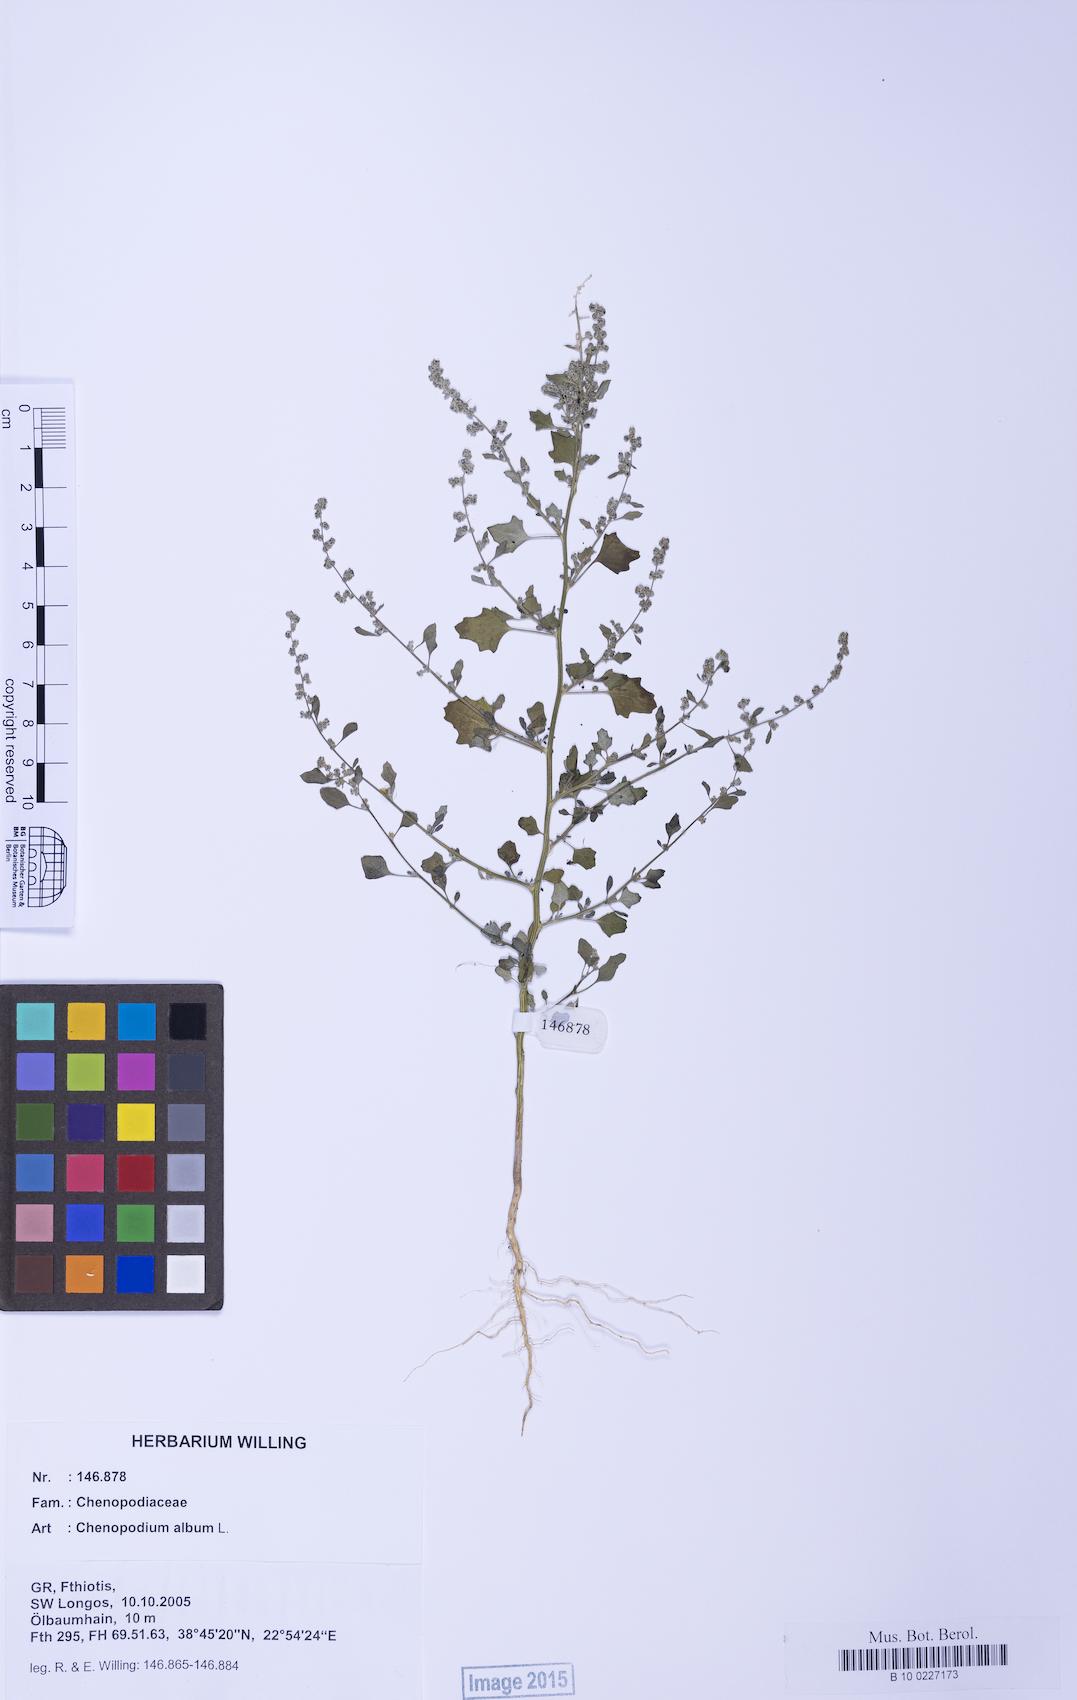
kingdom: Plantae
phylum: Tracheophyta
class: Magnoliopsida
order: Caryophyllales
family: Amaranthaceae
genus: Chenopodium
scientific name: Chenopodium album
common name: Fat-hen
